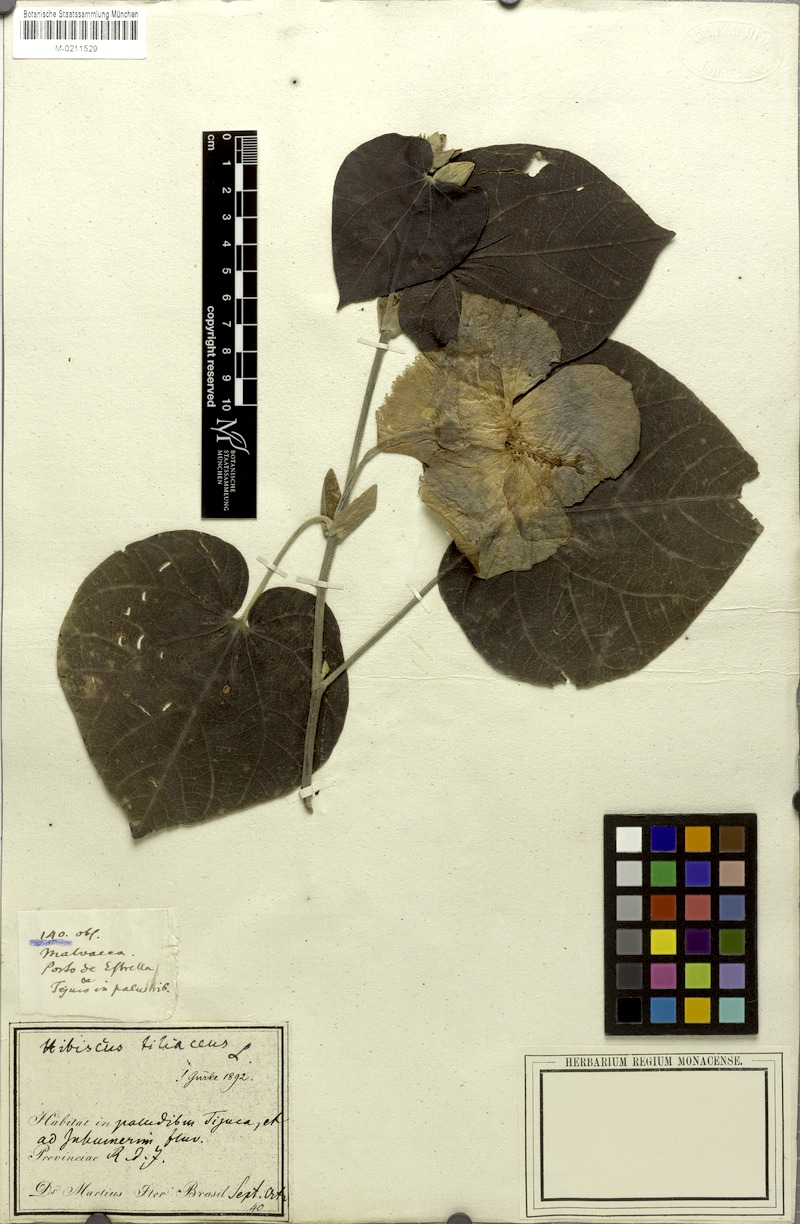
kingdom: Plantae
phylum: Tracheophyta
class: Magnoliopsida
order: Malvales
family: Malvaceae
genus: Talipariti
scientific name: Talipariti tiliaceum
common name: Sea hibiscus
